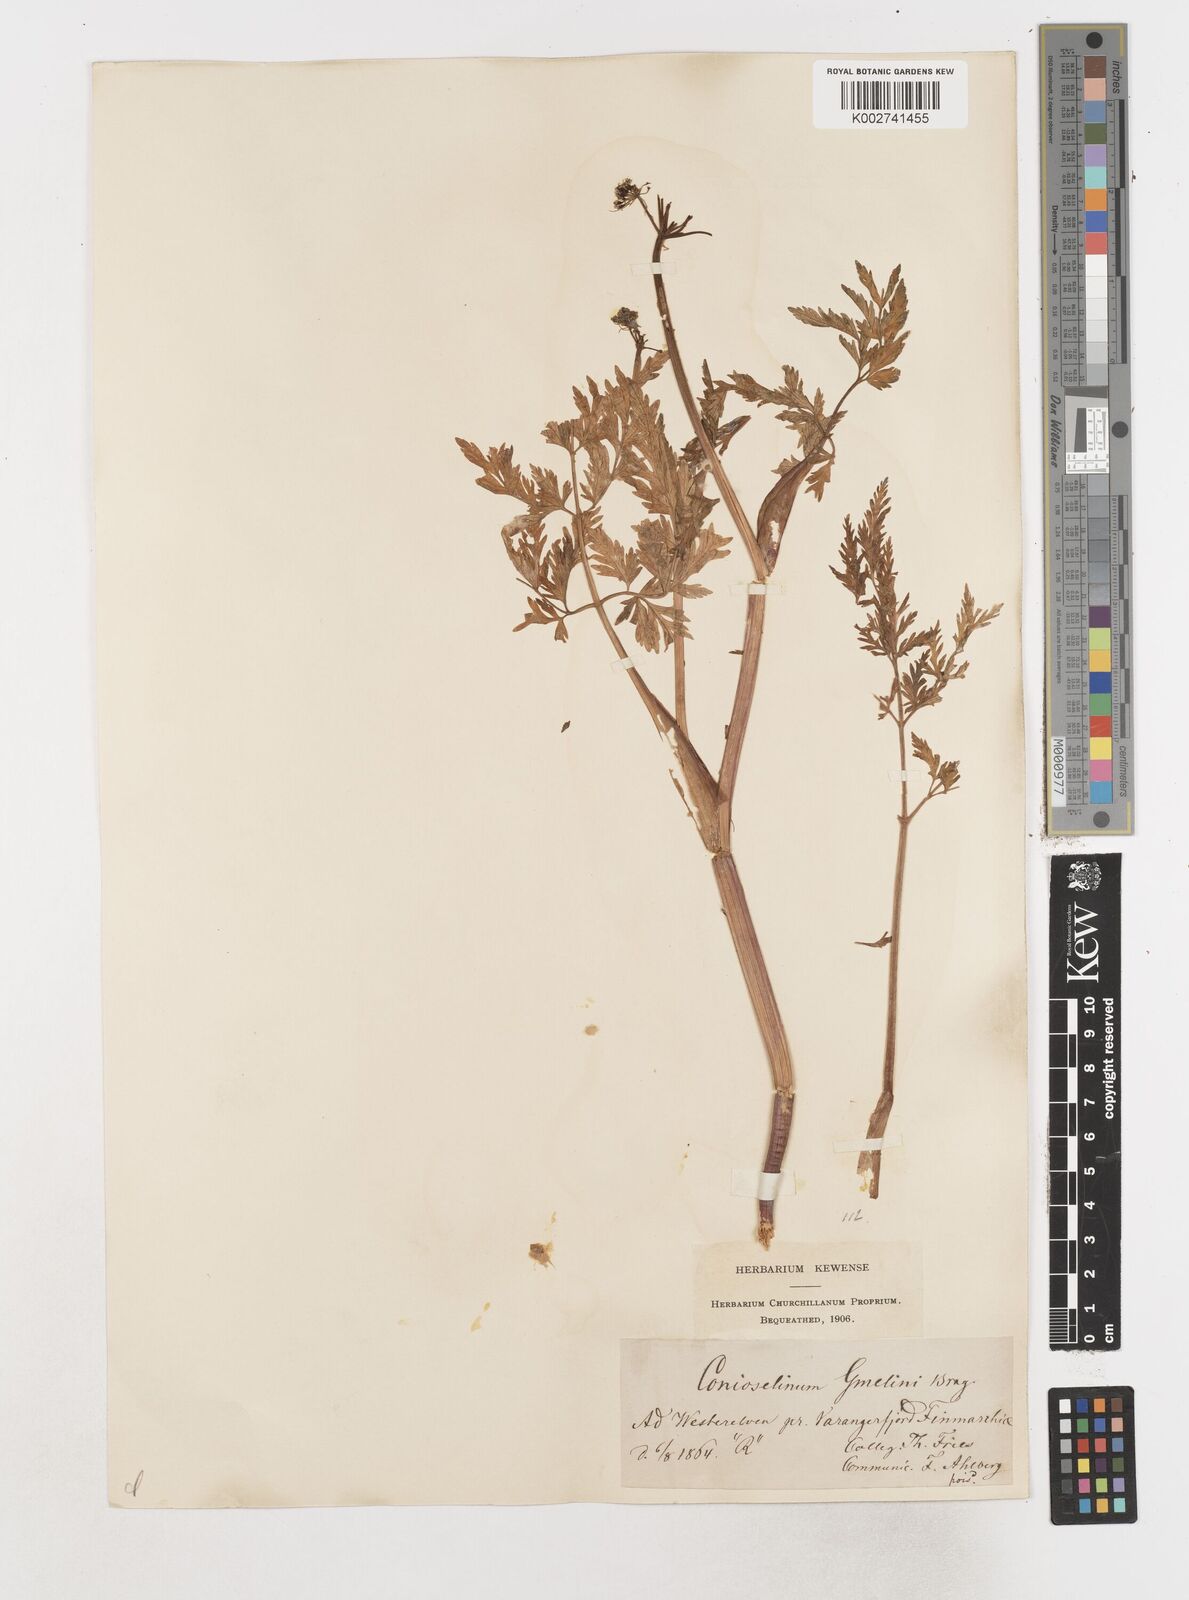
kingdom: Plantae
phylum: Tracheophyta
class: Magnoliopsida
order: Apiales
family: Apiaceae
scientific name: Apiaceae
